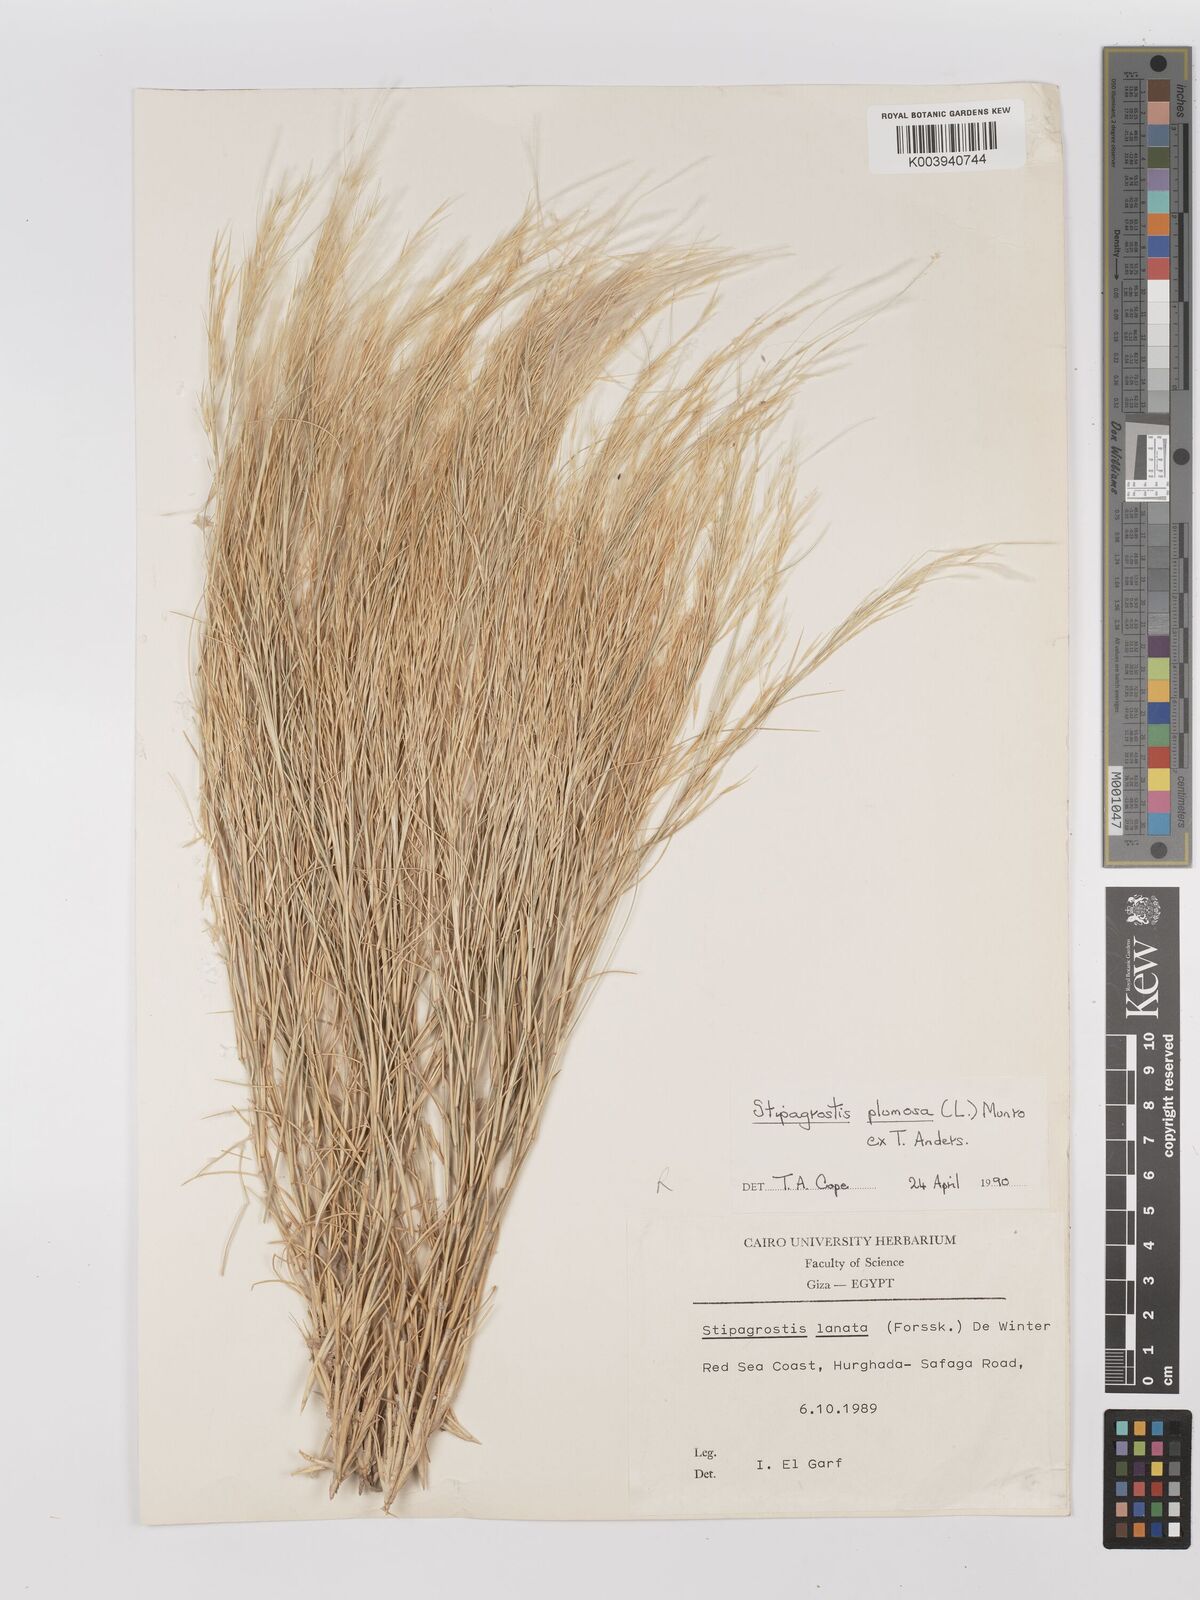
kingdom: Plantae
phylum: Tracheophyta
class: Liliopsida
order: Poales
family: Poaceae
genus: Stipagrostis
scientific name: Stipagrostis plumosa
